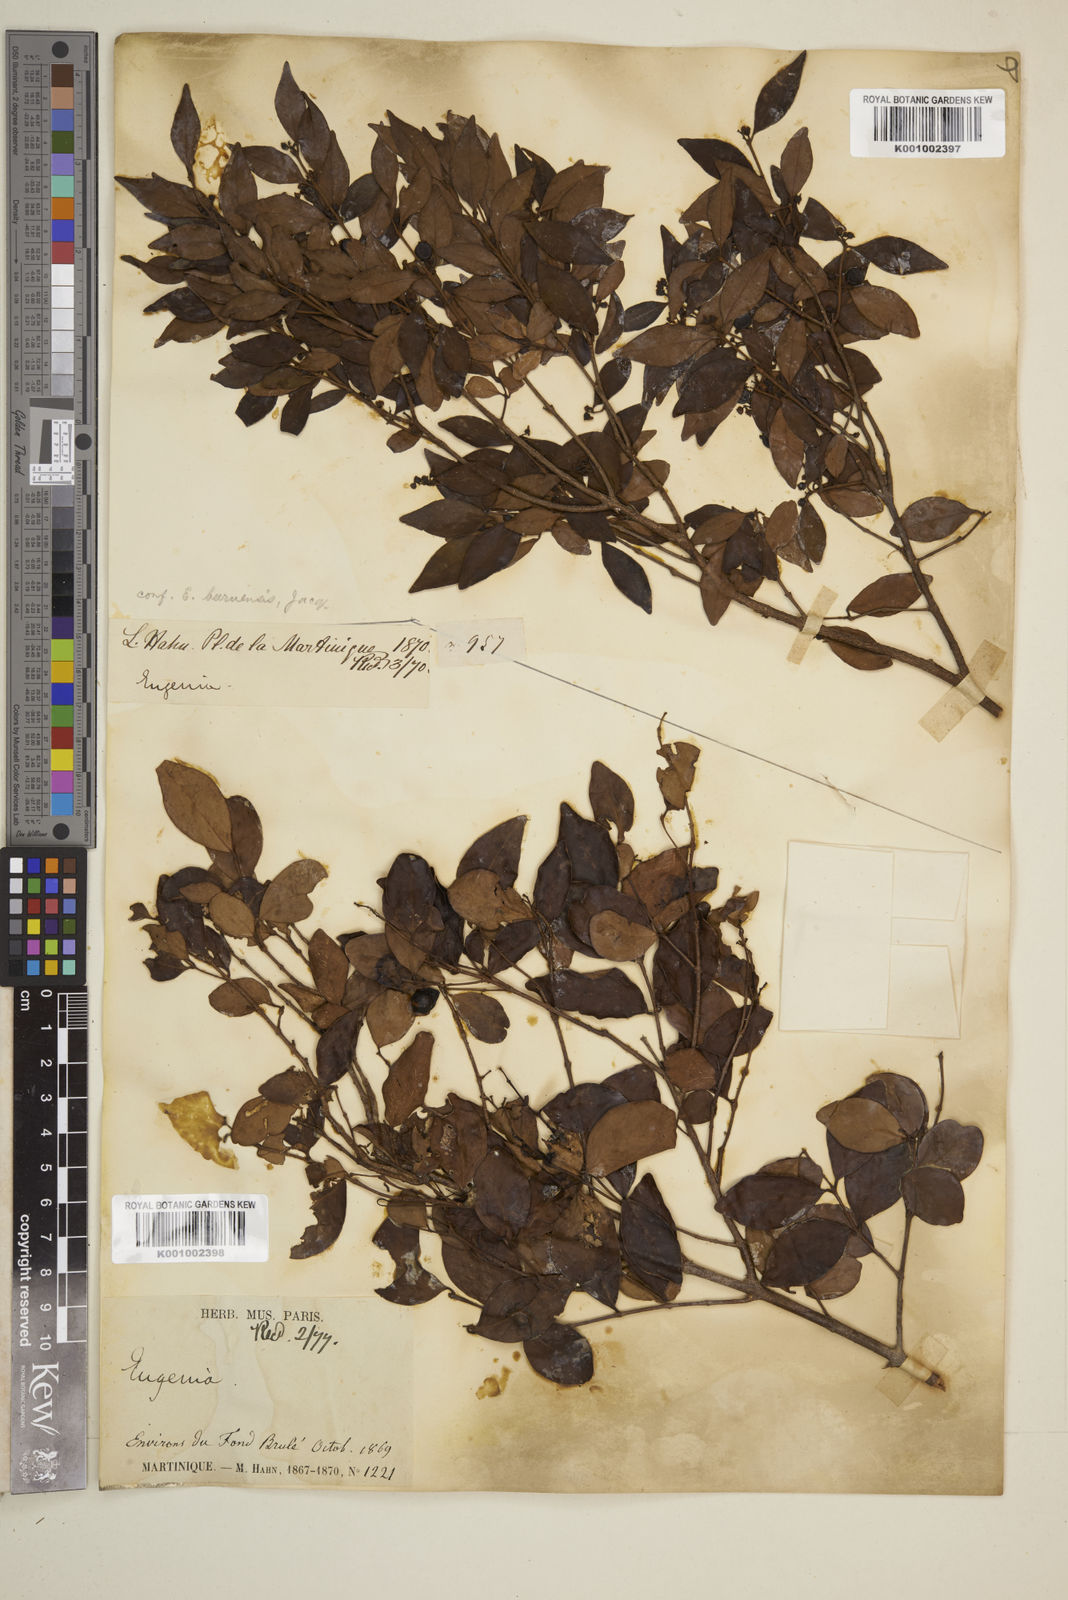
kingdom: Plantae
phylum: Tracheophyta
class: Magnoliopsida
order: Myrtales
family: Myrtaceae
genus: Eugenia
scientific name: Eugenia acapulcensis
